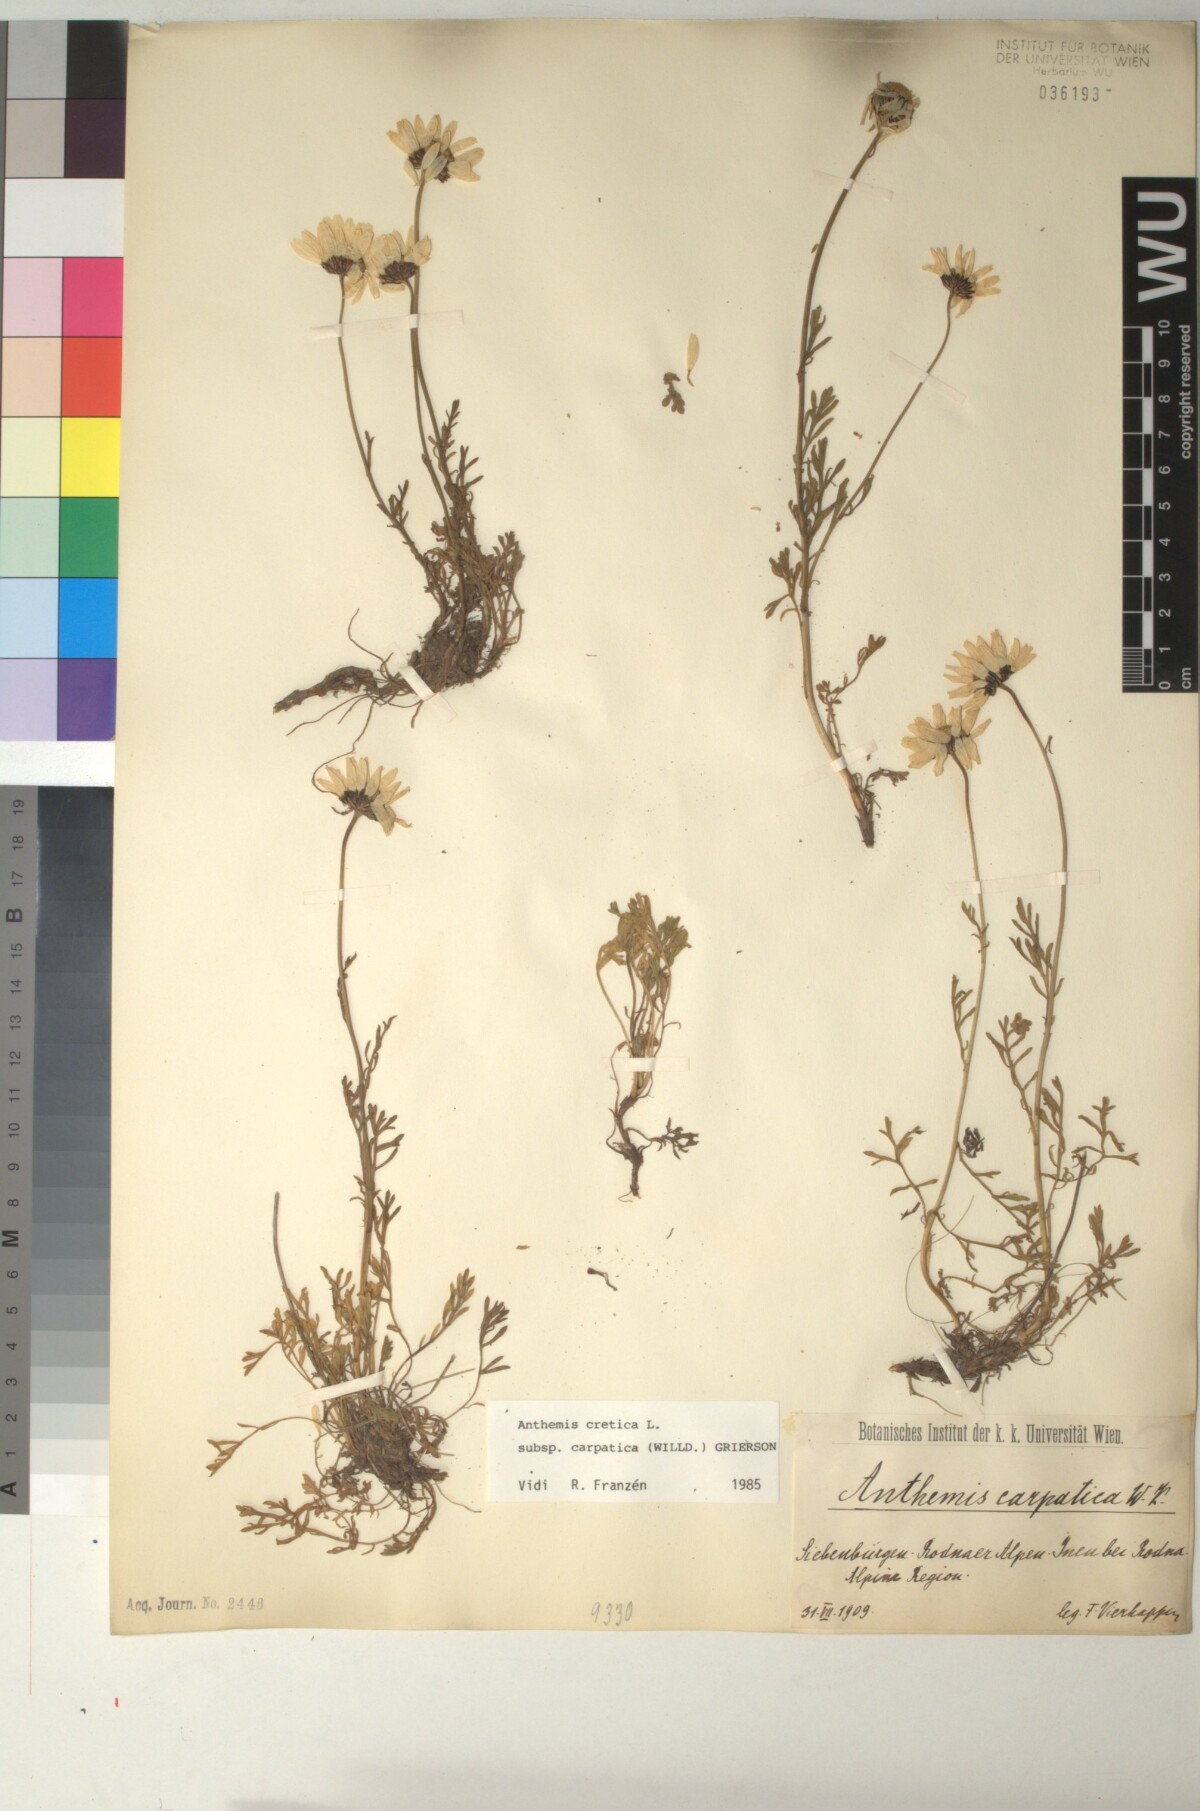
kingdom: Plantae
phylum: Tracheophyta
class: Magnoliopsida
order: Asterales
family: Asteraceae
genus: Anthemis
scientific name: Anthemis cretica
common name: Mountain dog-daisy
